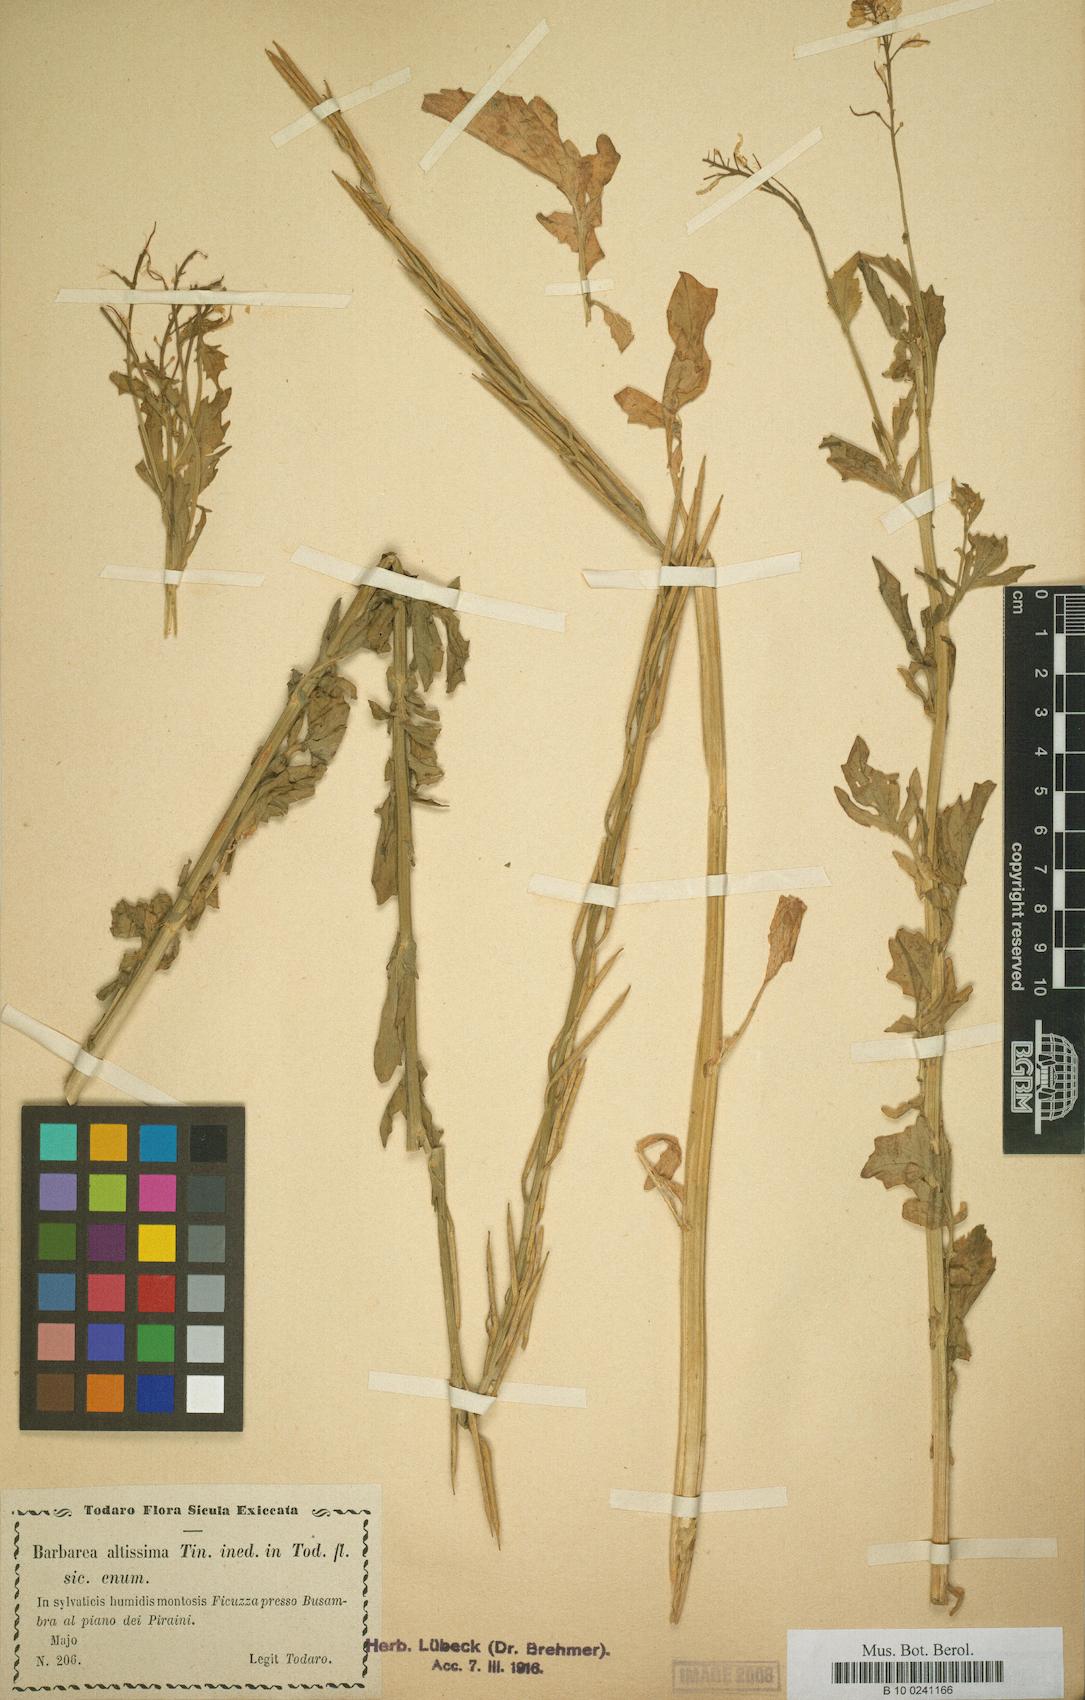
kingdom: Plantae
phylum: Tracheophyta
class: Magnoliopsida
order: Brassicales
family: Brassicaceae
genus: Barbarea
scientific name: Barbarea
